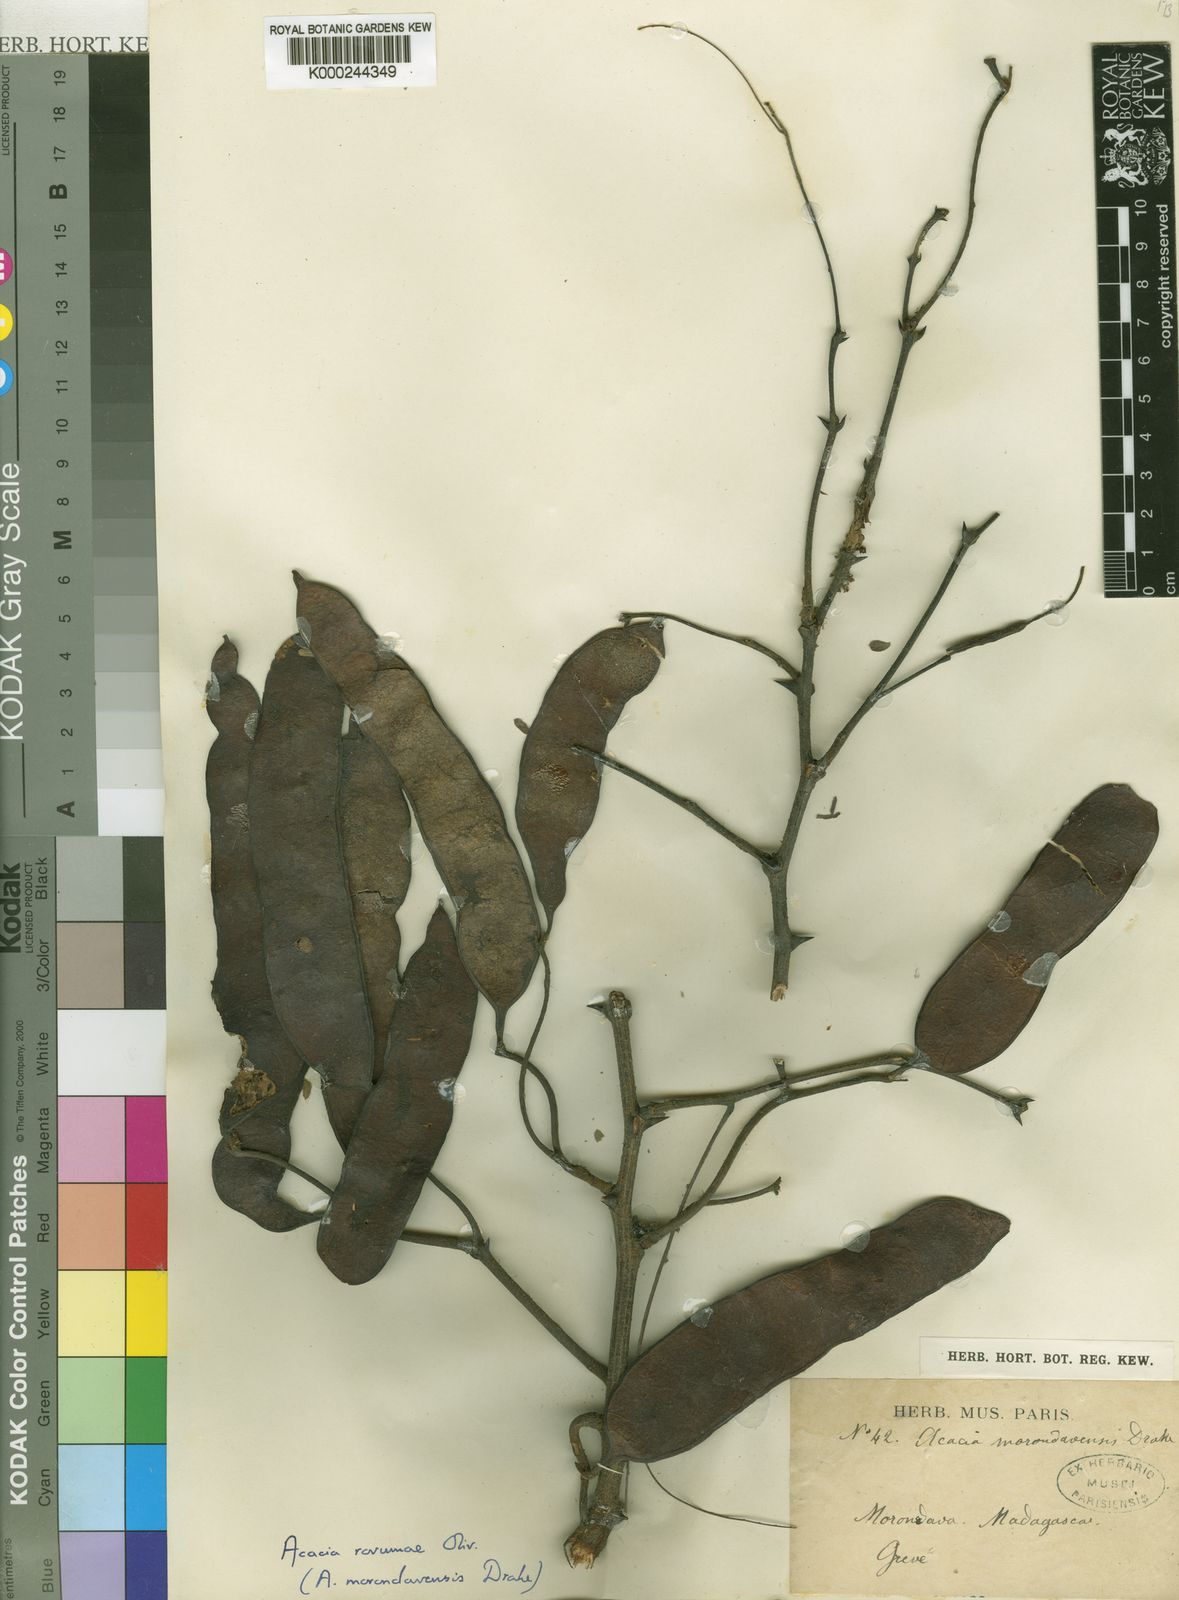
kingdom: Plantae
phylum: Tracheophyta
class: Magnoliopsida
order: Fabales
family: Fabaceae
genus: Senegalia
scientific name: Senegalia rovumae
